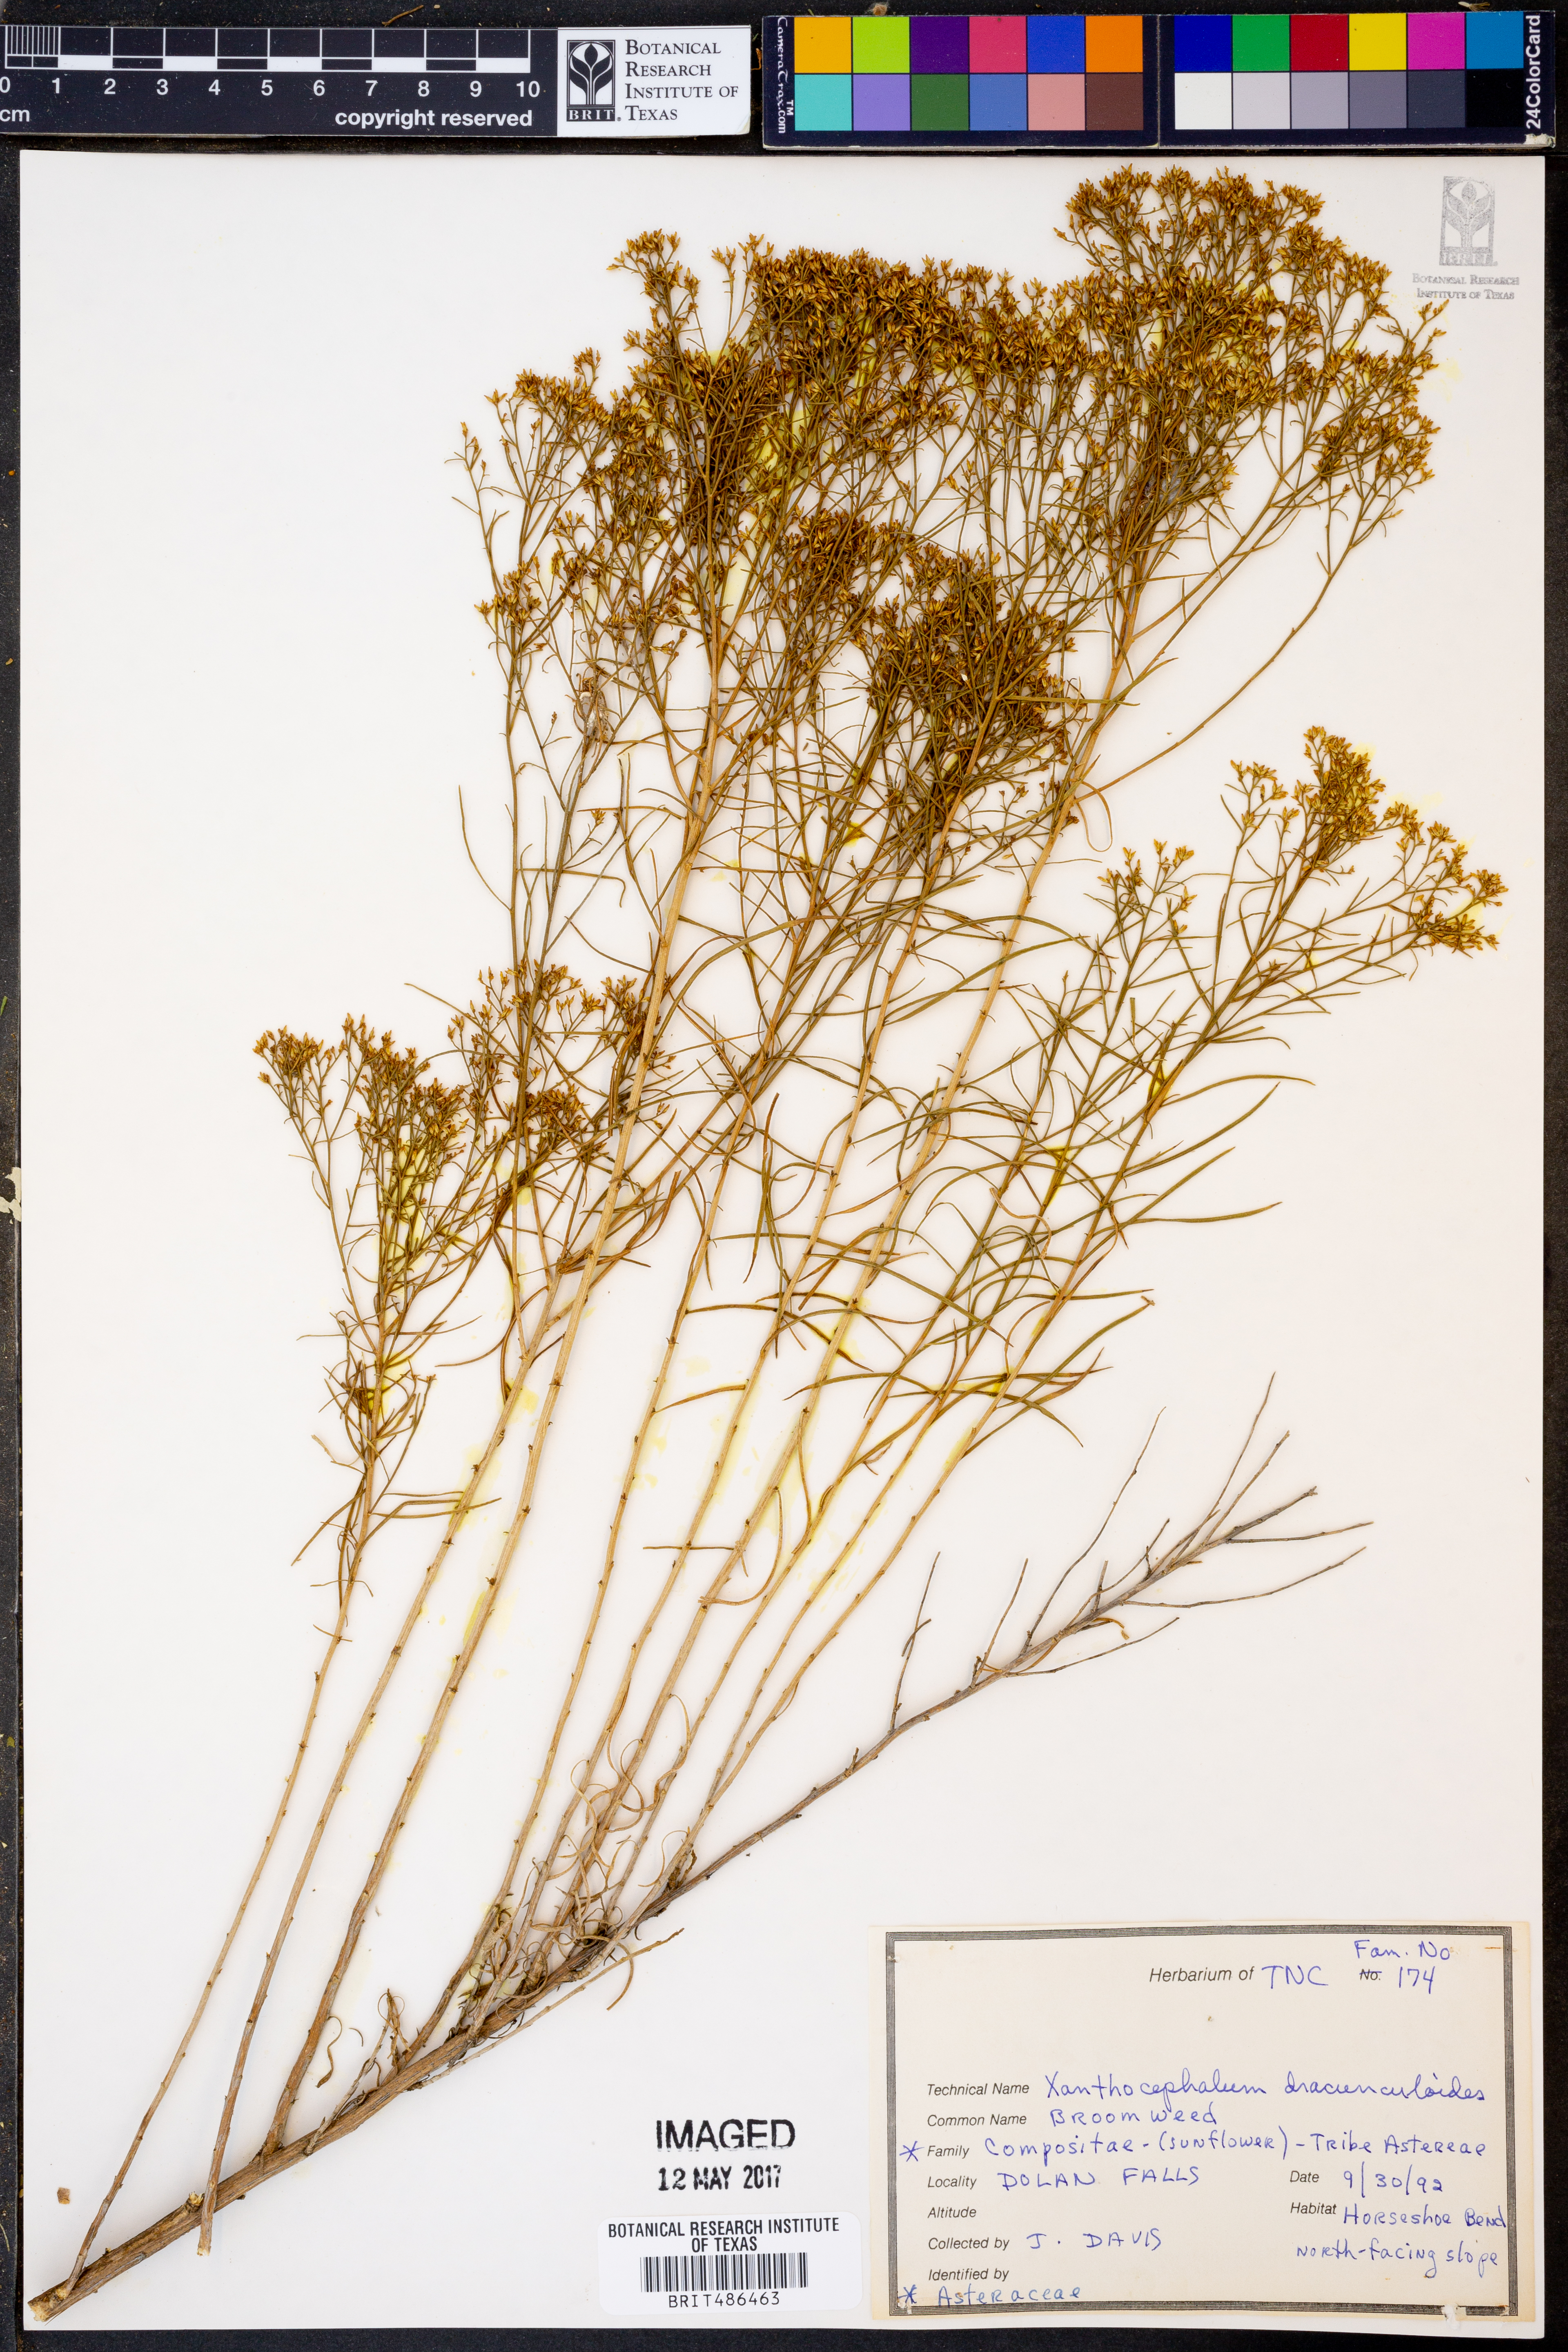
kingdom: Plantae
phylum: Tracheophyta
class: Magnoliopsida
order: Asterales
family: Asteraceae
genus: Amphiachyris
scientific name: Amphiachyris dracunculoides
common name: Broomweed
